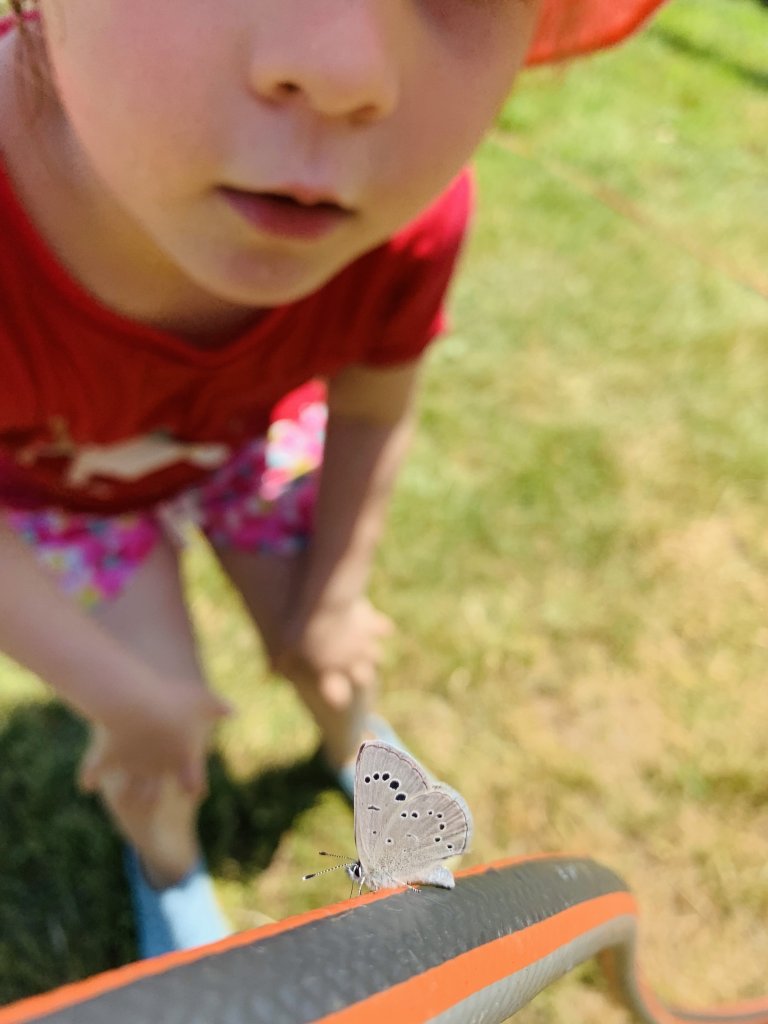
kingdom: Animalia
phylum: Arthropoda
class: Insecta
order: Lepidoptera
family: Lycaenidae
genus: Glaucopsyche
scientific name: Glaucopsyche lygdamus
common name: Silvery Blue
